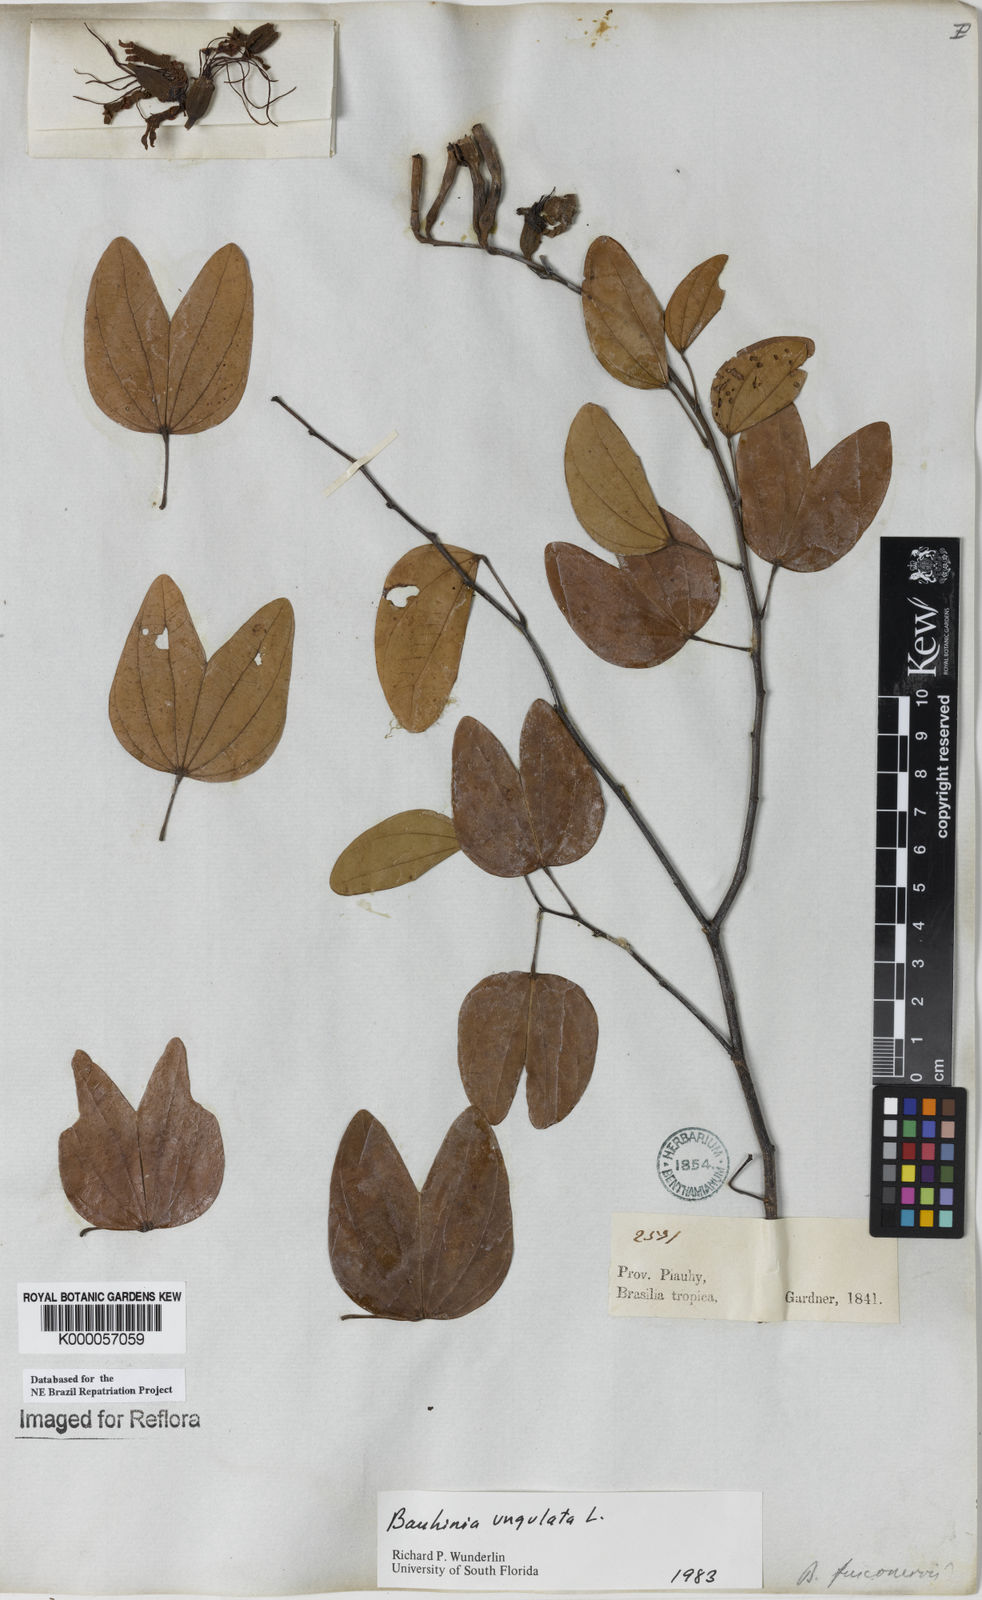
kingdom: Plantae
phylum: Tracheophyta
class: Magnoliopsida
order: Fabales
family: Fabaceae
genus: Bauhinia
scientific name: Bauhinia ungulata
